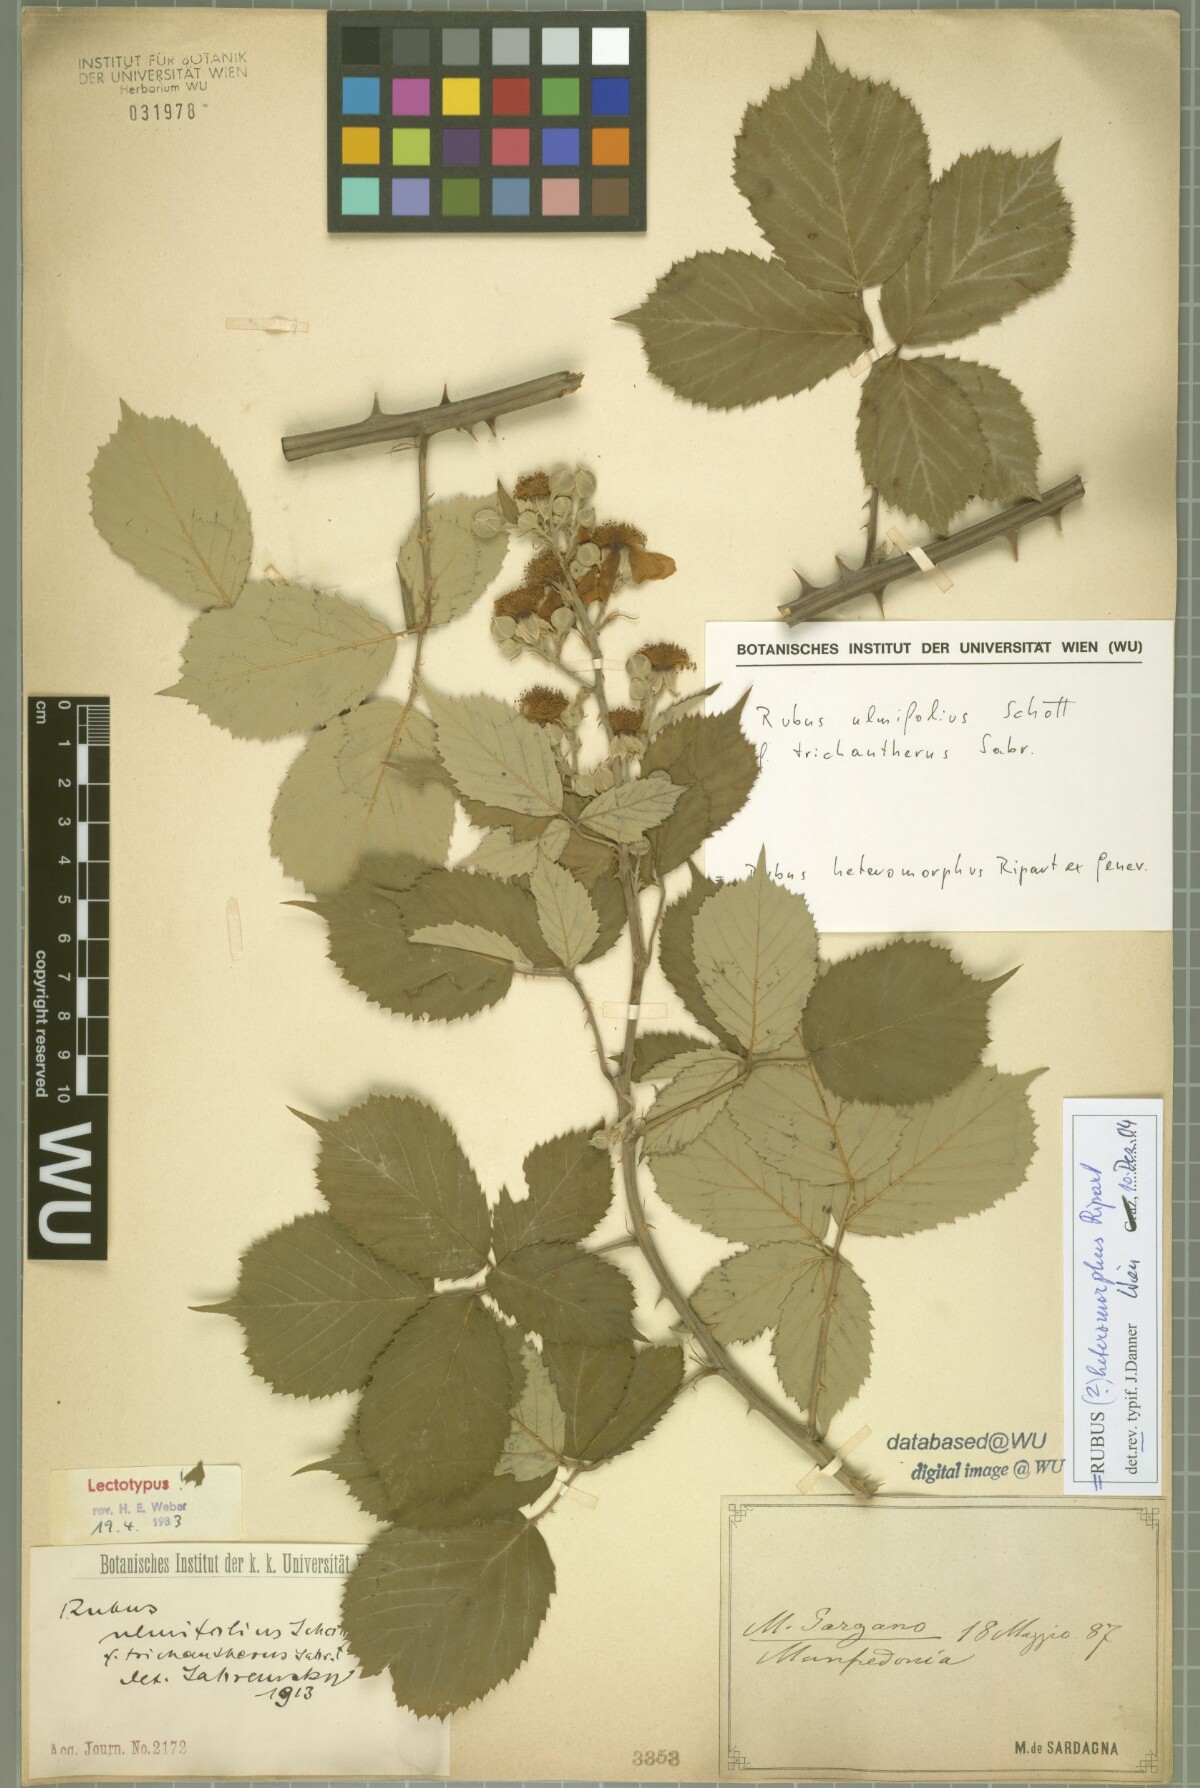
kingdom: Plantae
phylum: Tracheophyta
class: Magnoliopsida
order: Rosales
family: Rosaceae
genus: Rubus
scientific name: Rubus ulmifolius
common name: Elmleaf blackberry
